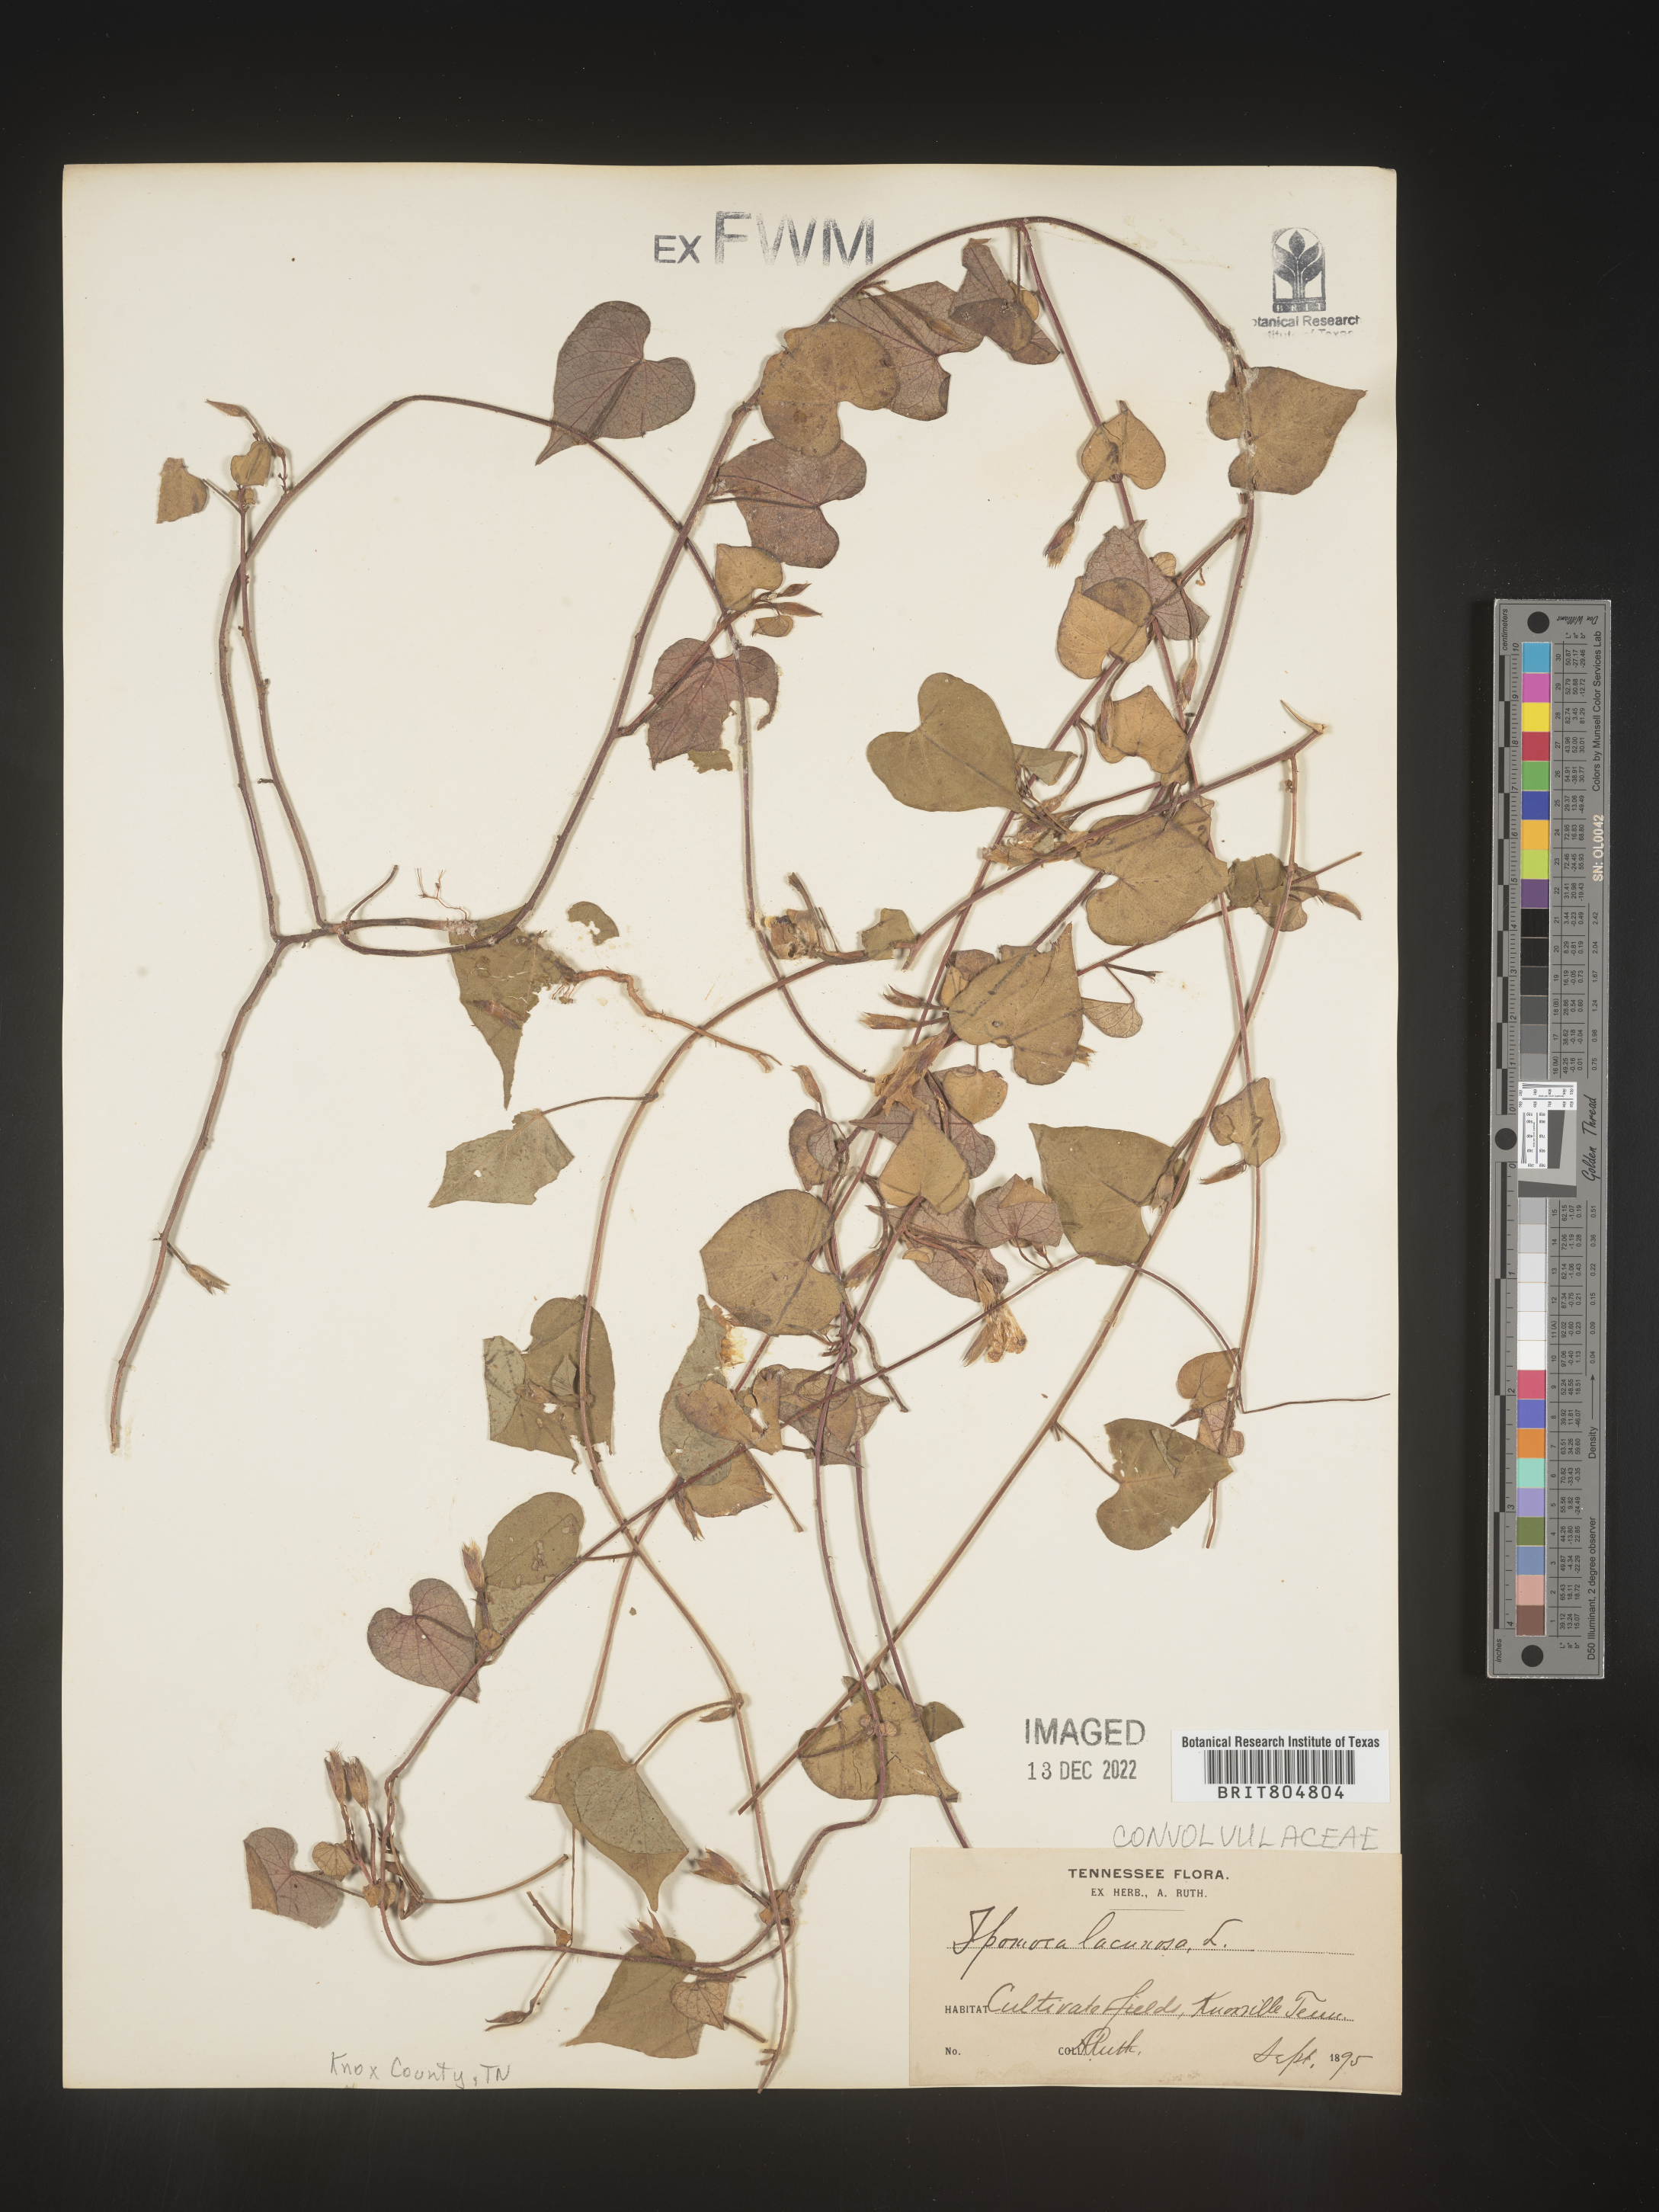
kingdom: Plantae
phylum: Tracheophyta
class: Magnoliopsida
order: Solanales
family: Convolvulaceae
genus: Ipomoea
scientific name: Ipomoea lacunosa
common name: White morning-glory
